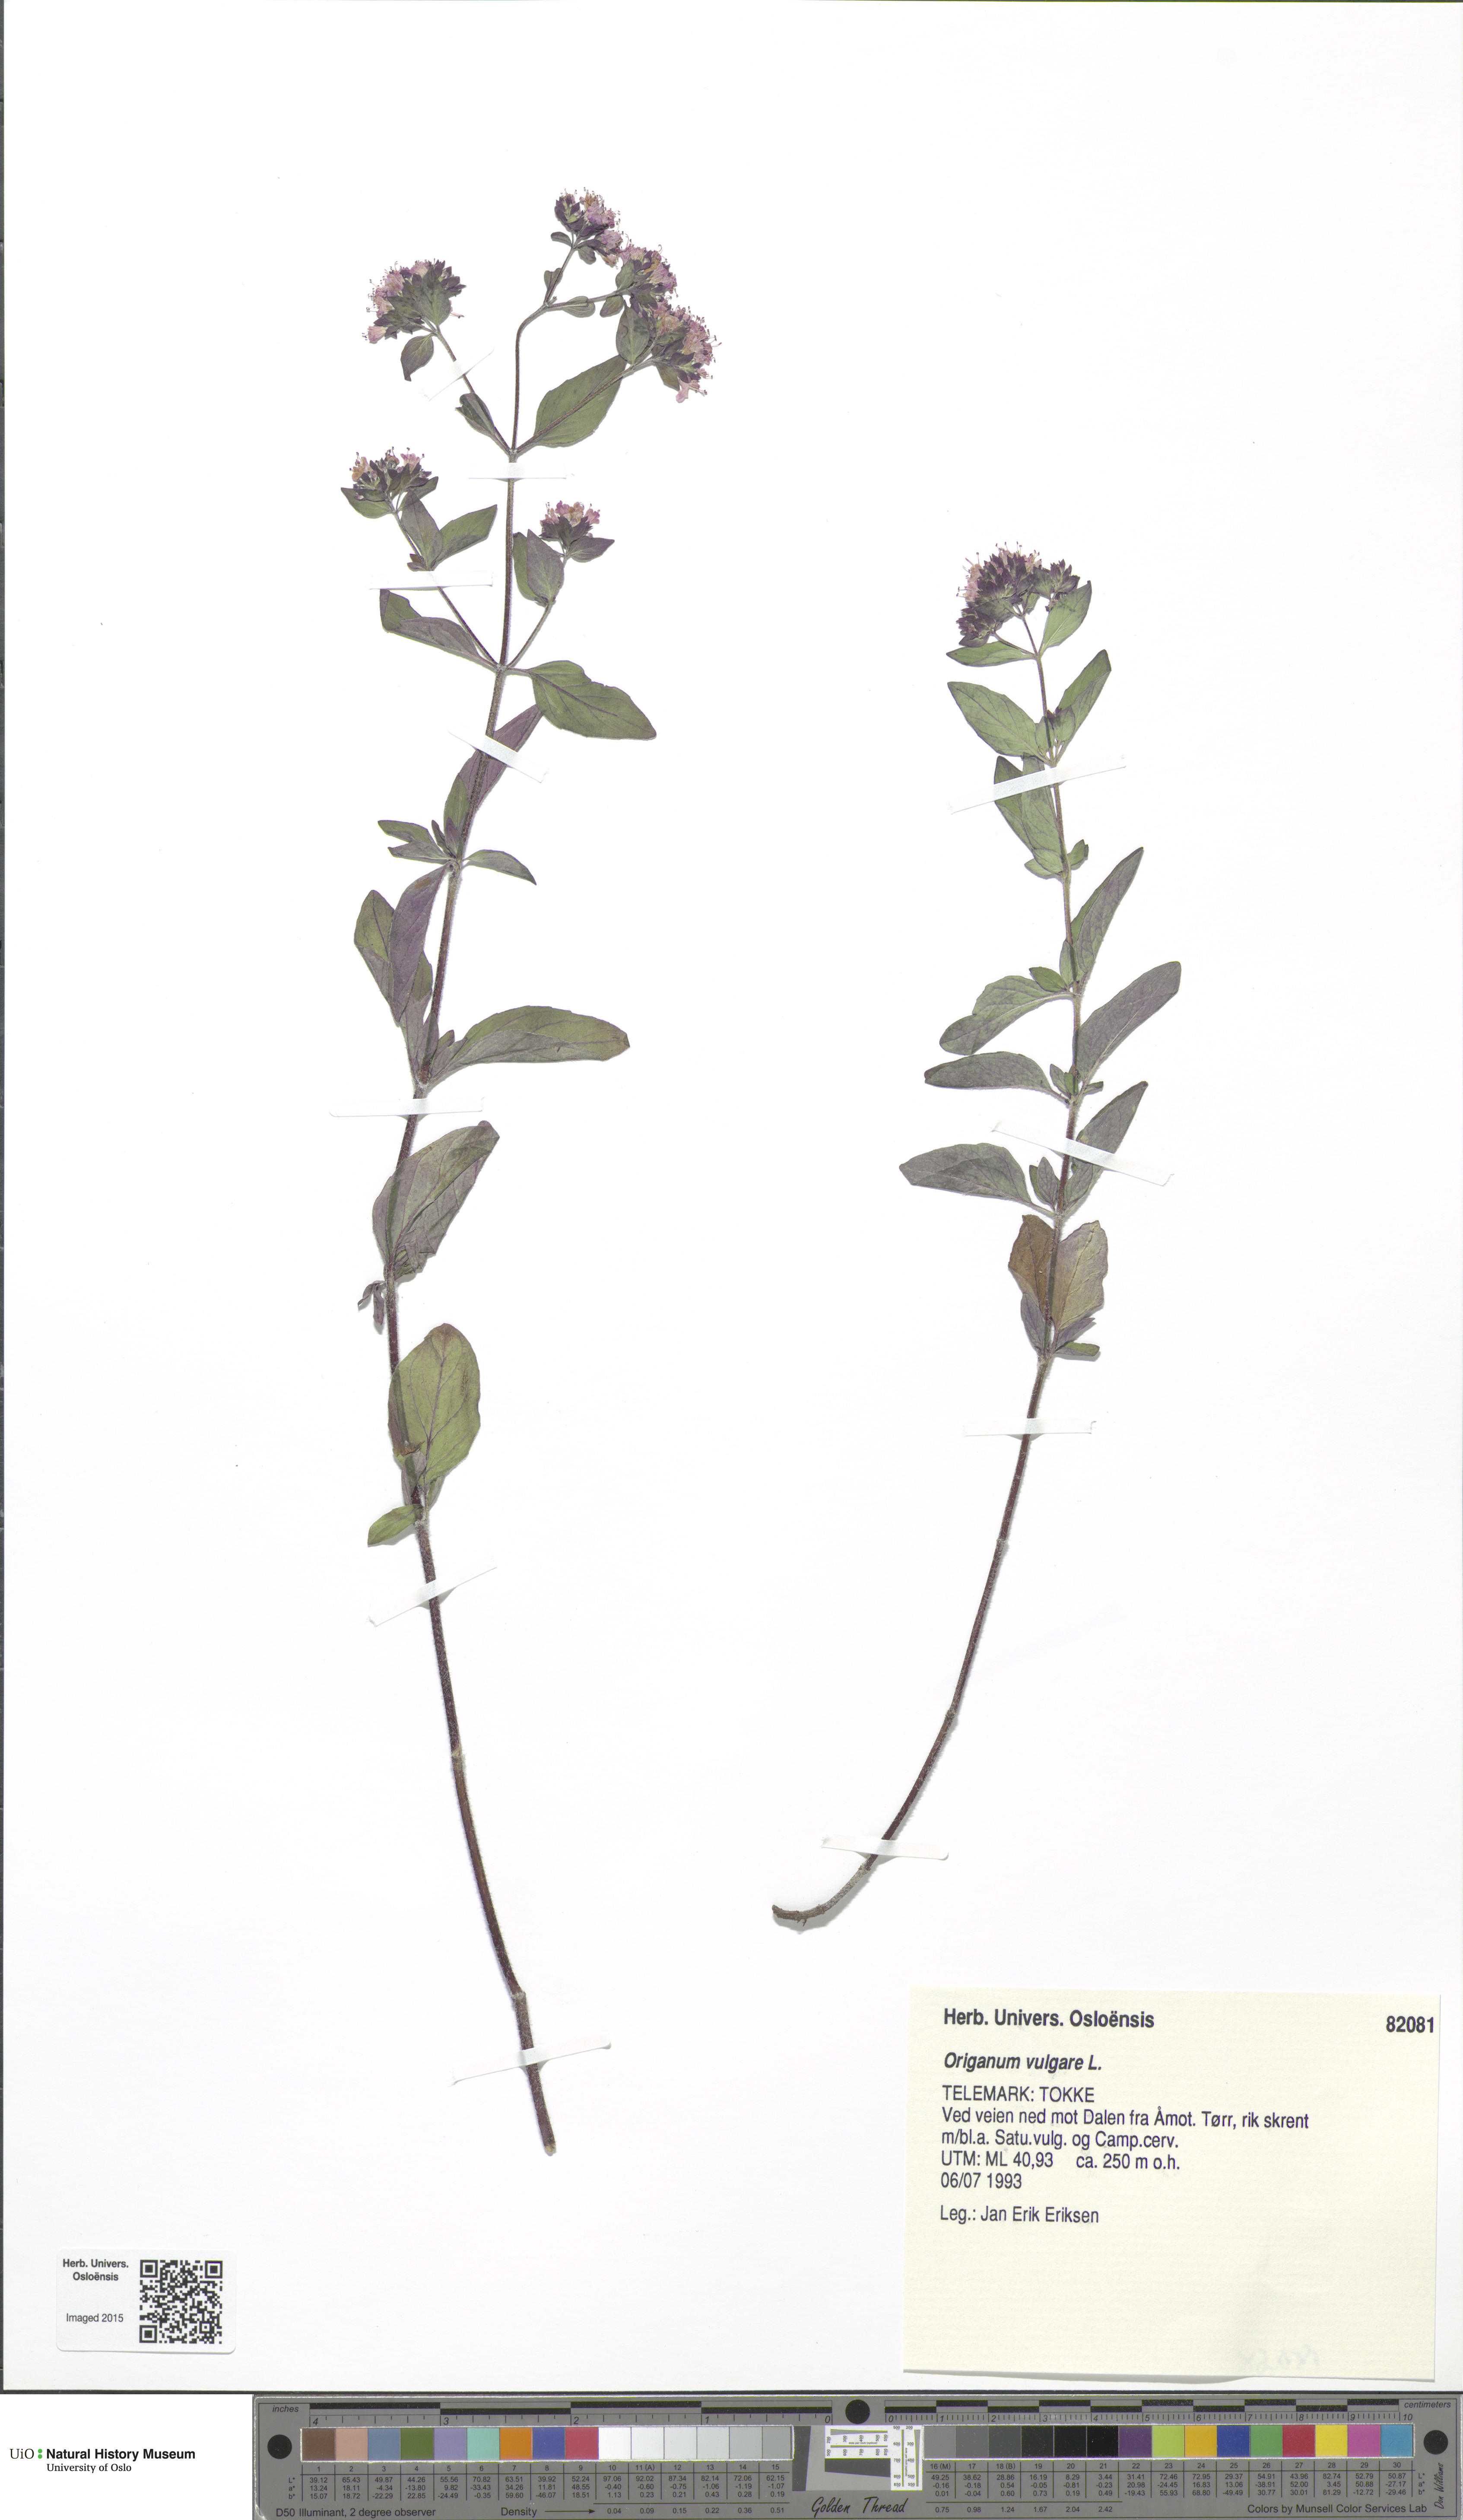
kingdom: Plantae
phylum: Tracheophyta
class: Magnoliopsida
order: Lamiales
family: Lamiaceae
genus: Origanum
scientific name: Origanum vulgare
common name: Wild marjoram
